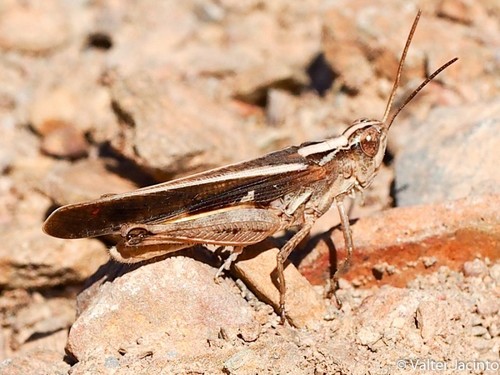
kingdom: Animalia
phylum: Arthropoda
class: Insecta
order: Orthoptera
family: Acrididae
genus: Aiolopus
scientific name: Aiolopus puissanti
